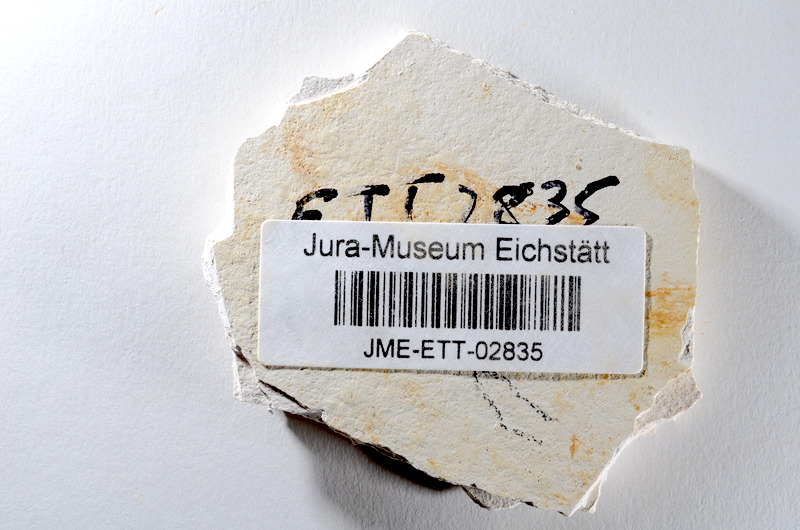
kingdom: Animalia
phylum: Chordata
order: Salmoniformes
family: Orthogonikleithridae
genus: Orthogonikleithrus
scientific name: Orthogonikleithrus hoelli
